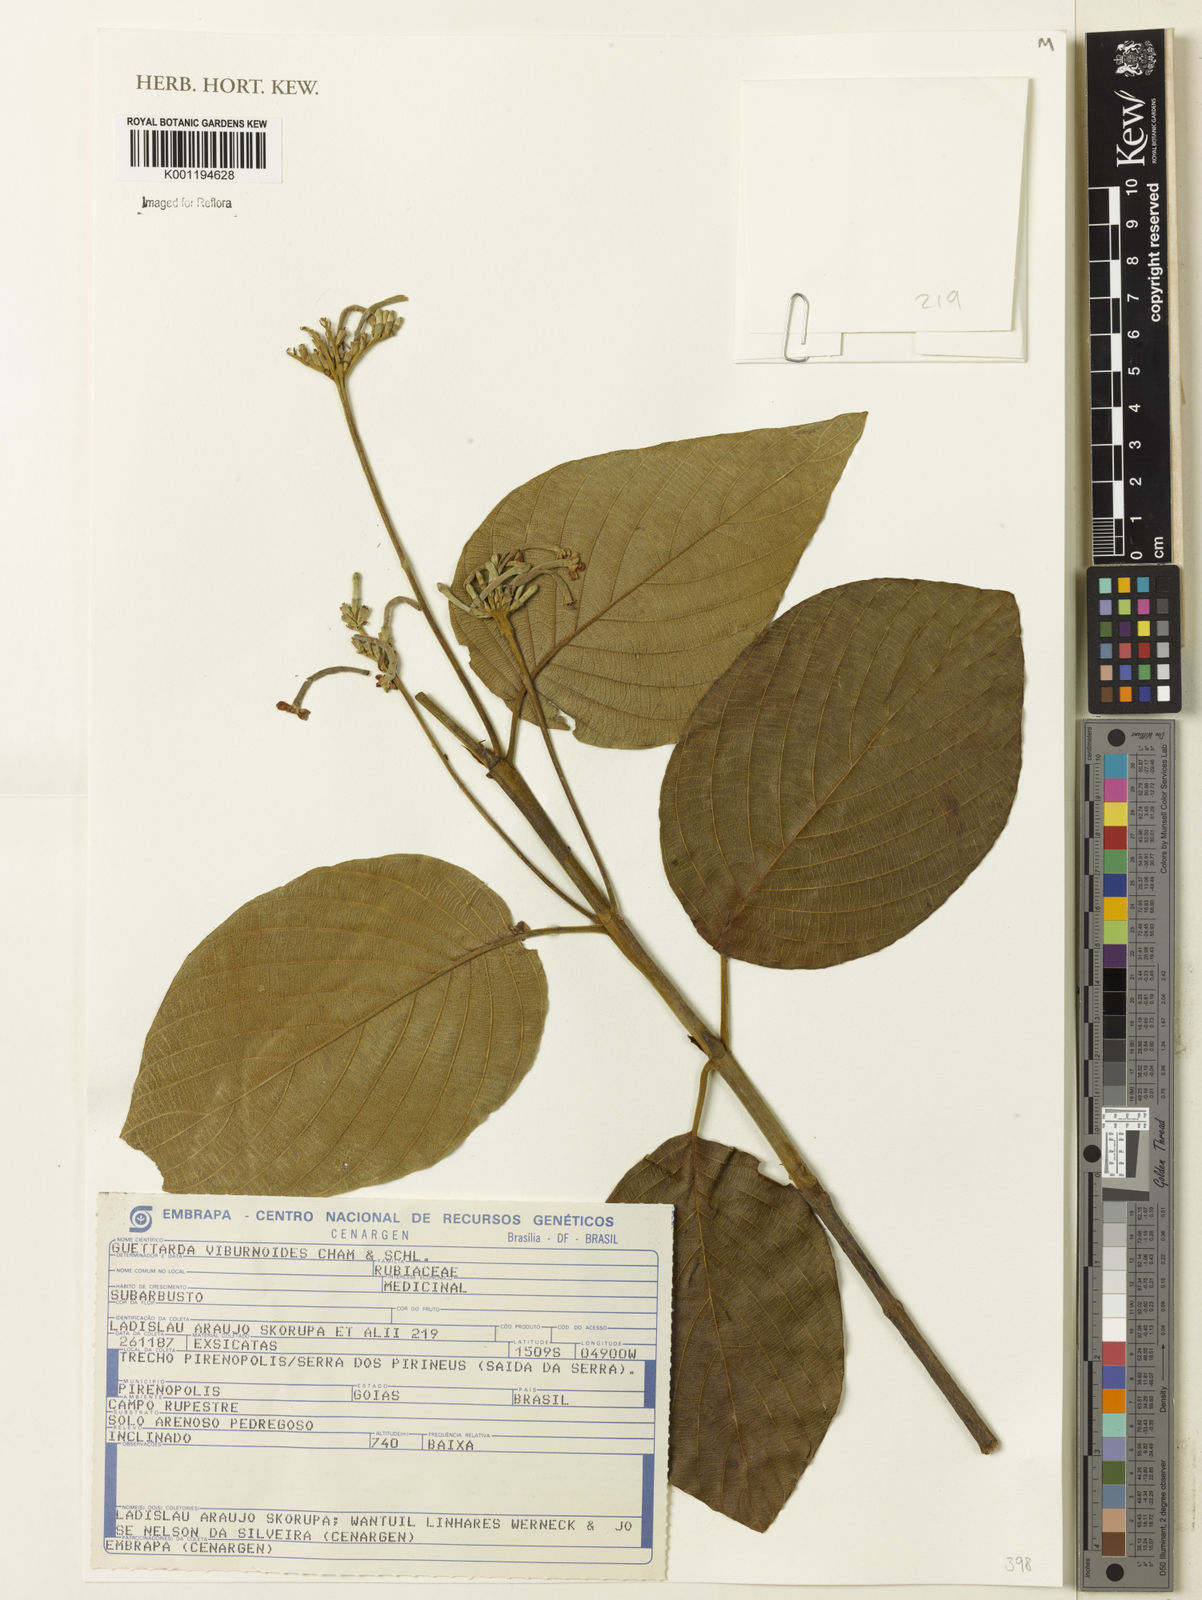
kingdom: Plantae
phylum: Tracheophyta
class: Magnoliopsida
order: Gentianales
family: Rubiaceae
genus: Guettarda
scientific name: Guettarda viburnoides
